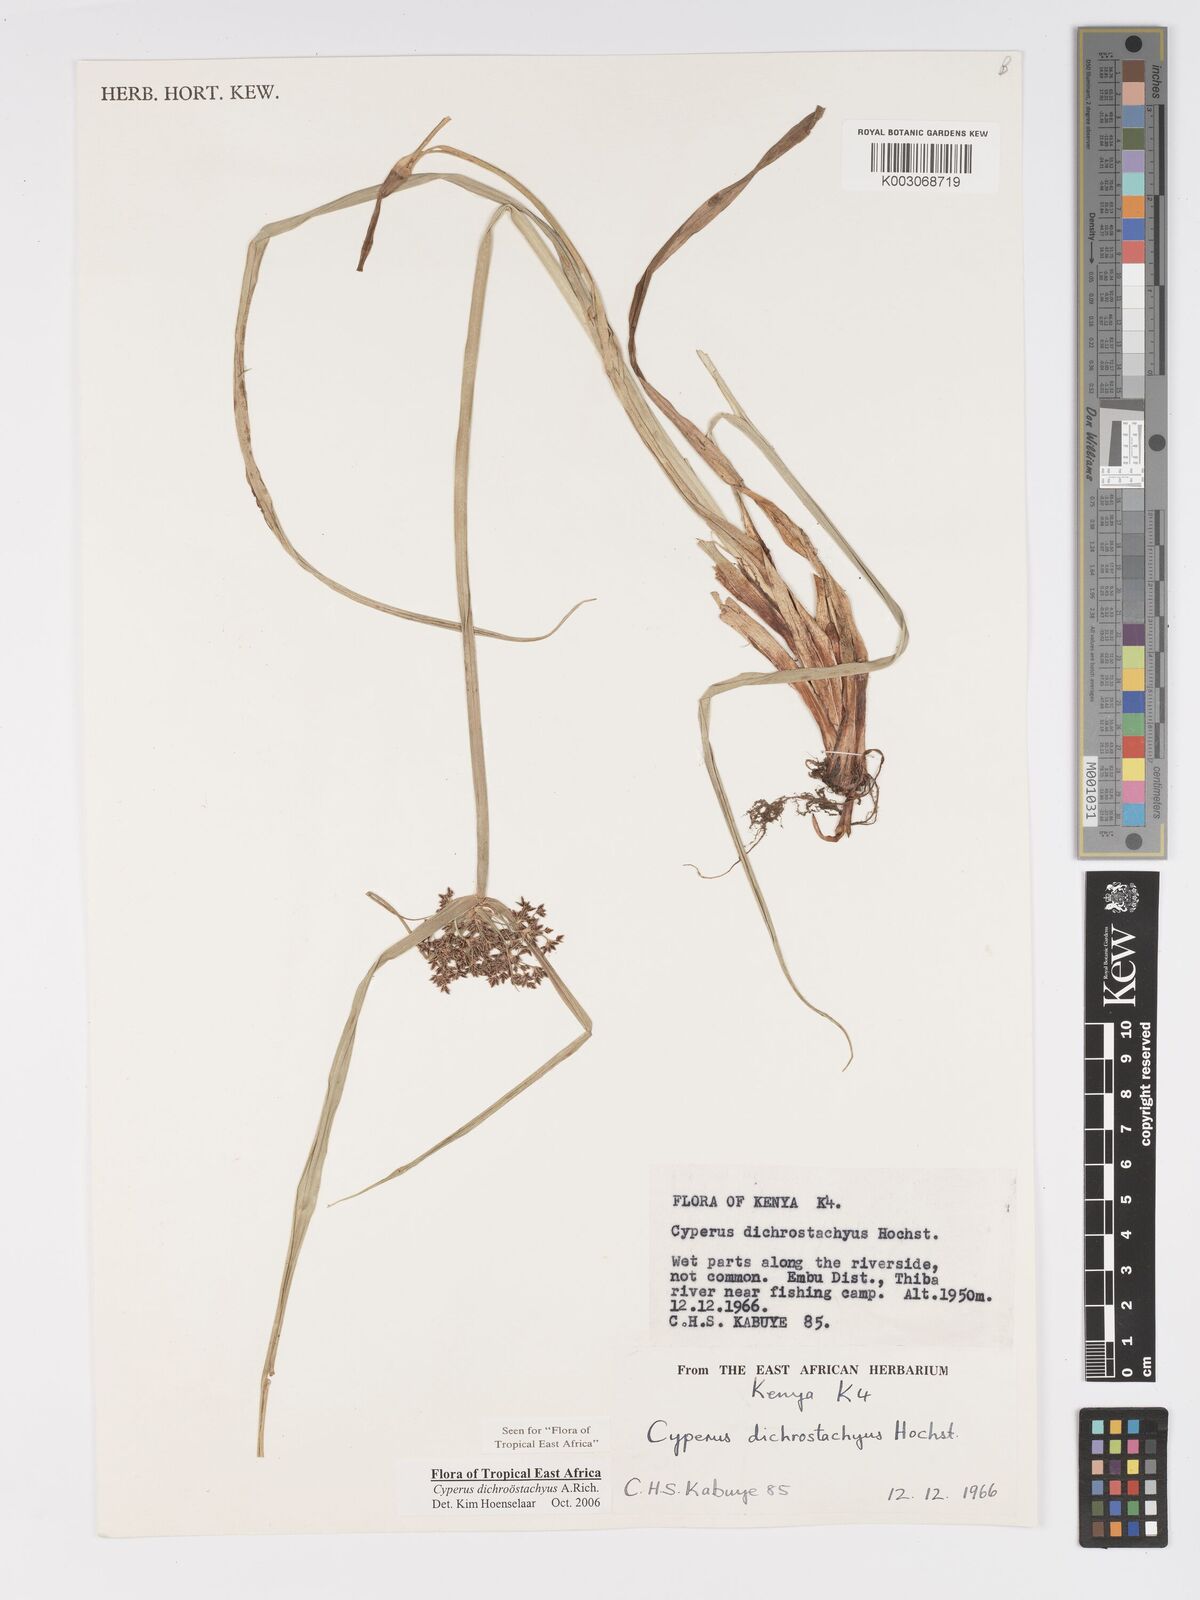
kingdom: Plantae
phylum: Tracheophyta
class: Liliopsida
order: Poales
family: Cyperaceae
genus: Cyperus
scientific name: Cyperus dichrostachyus
